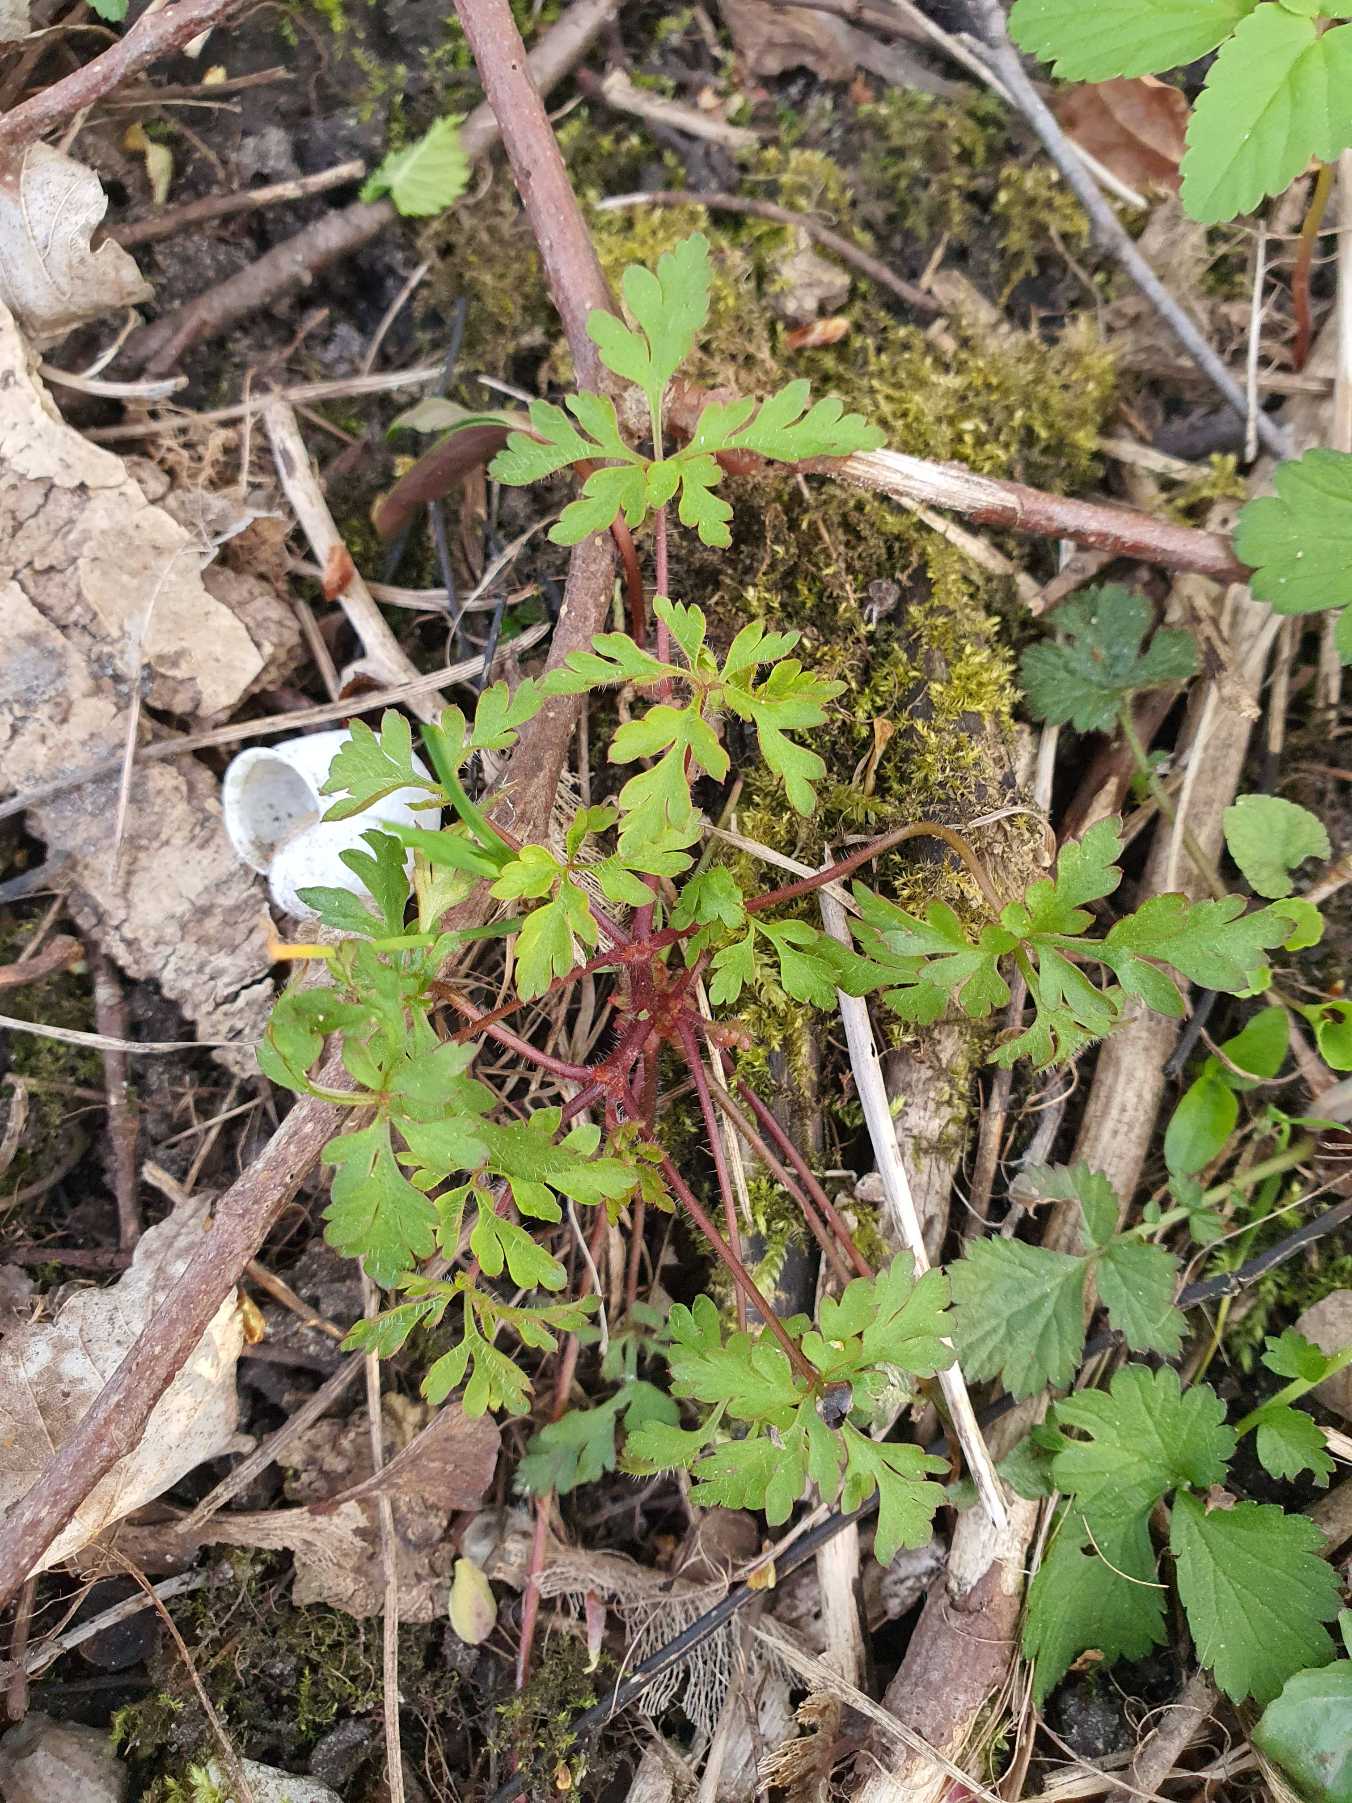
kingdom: Plantae
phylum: Tracheophyta
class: Magnoliopsida
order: Geraniales
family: Geraniaceae
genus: Geranium
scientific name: Geranium robertianum
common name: Stinkende storkenæb
